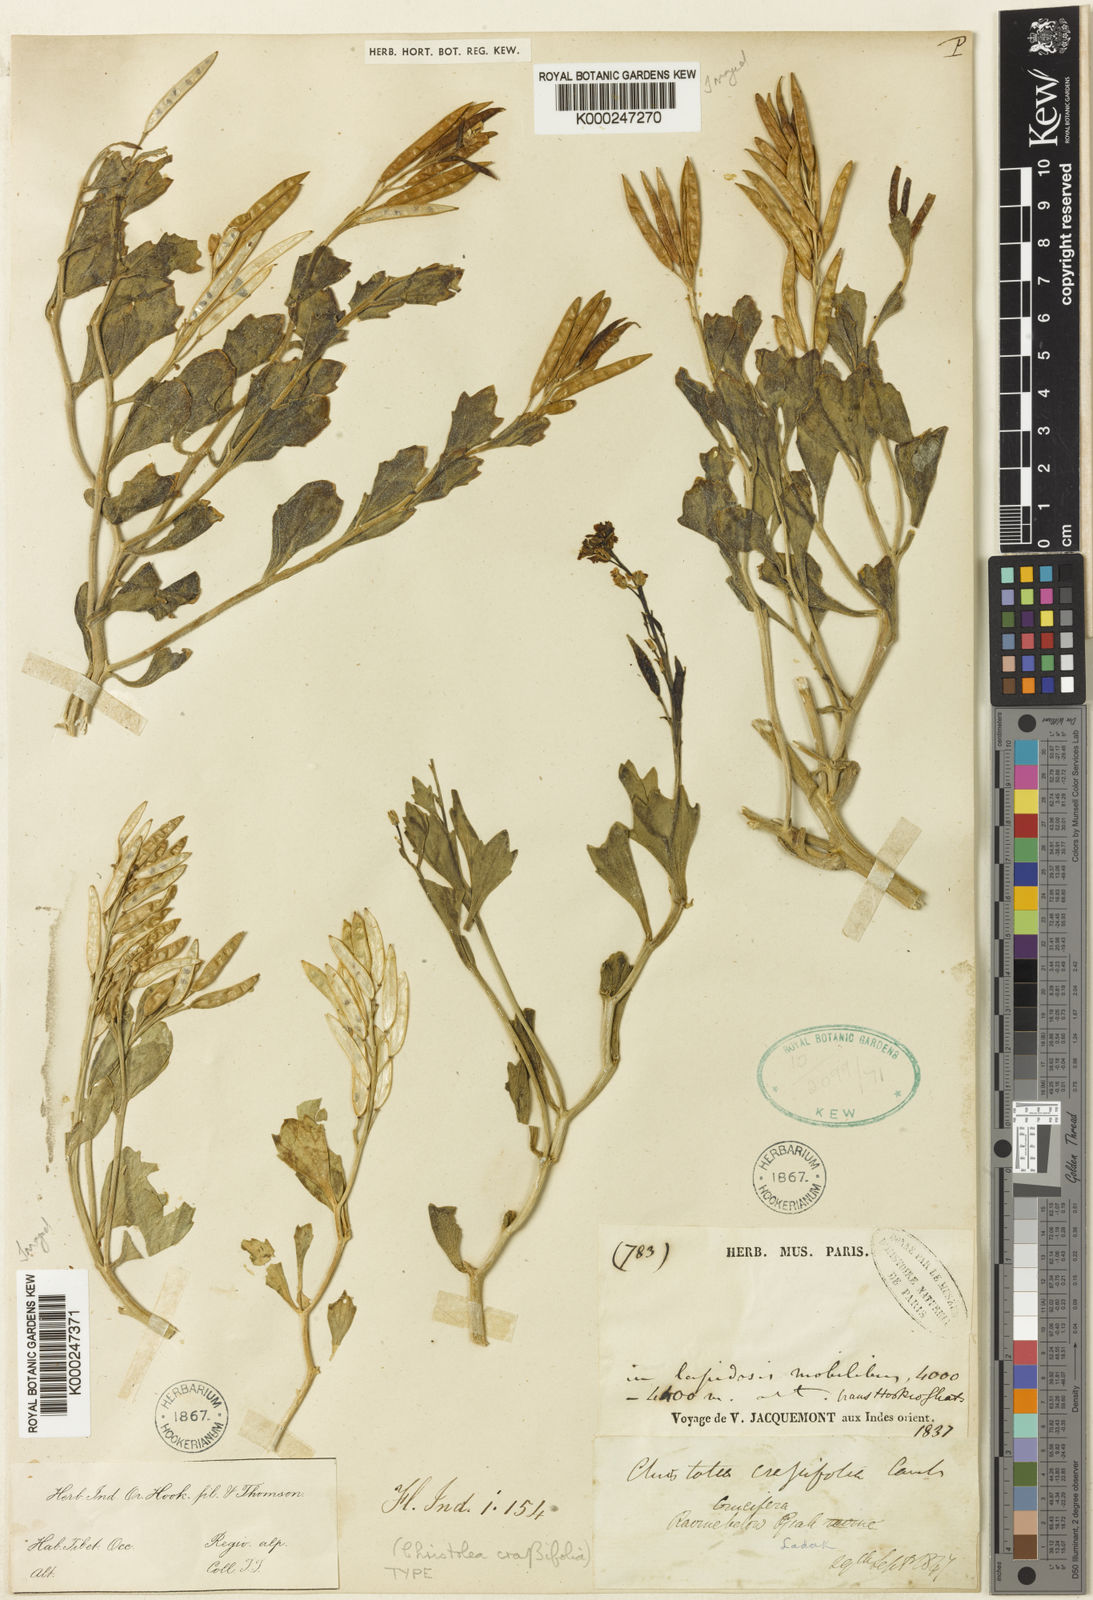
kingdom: Plantae
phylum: Tracheophyta
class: Magnoliopsida
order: Brassicales
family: Brassicaceae
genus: Christolea
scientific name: Christolea crassifolia
